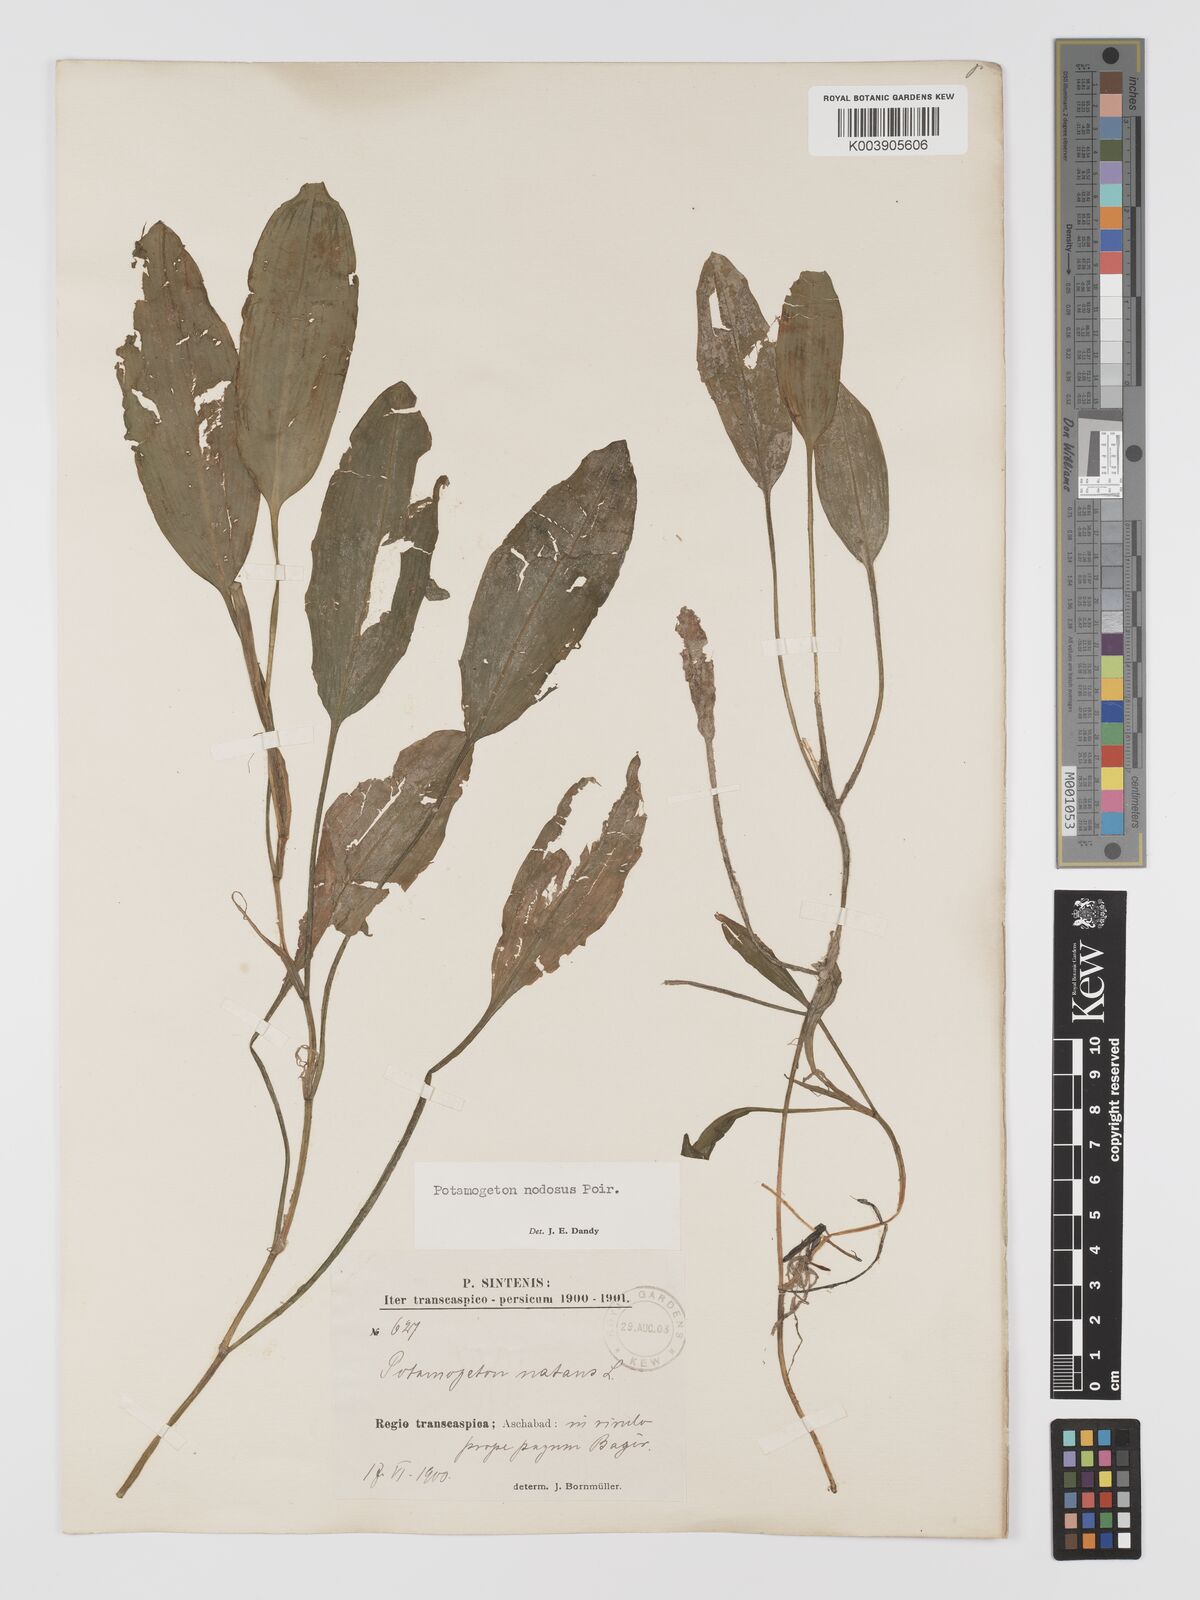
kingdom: Plantae
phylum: Tracheophyta
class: Liliopsida
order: Alismatales
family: Potamogetonaceae
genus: Potamogeton
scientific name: Potamogeton nodosus
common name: Loddon pondweed
